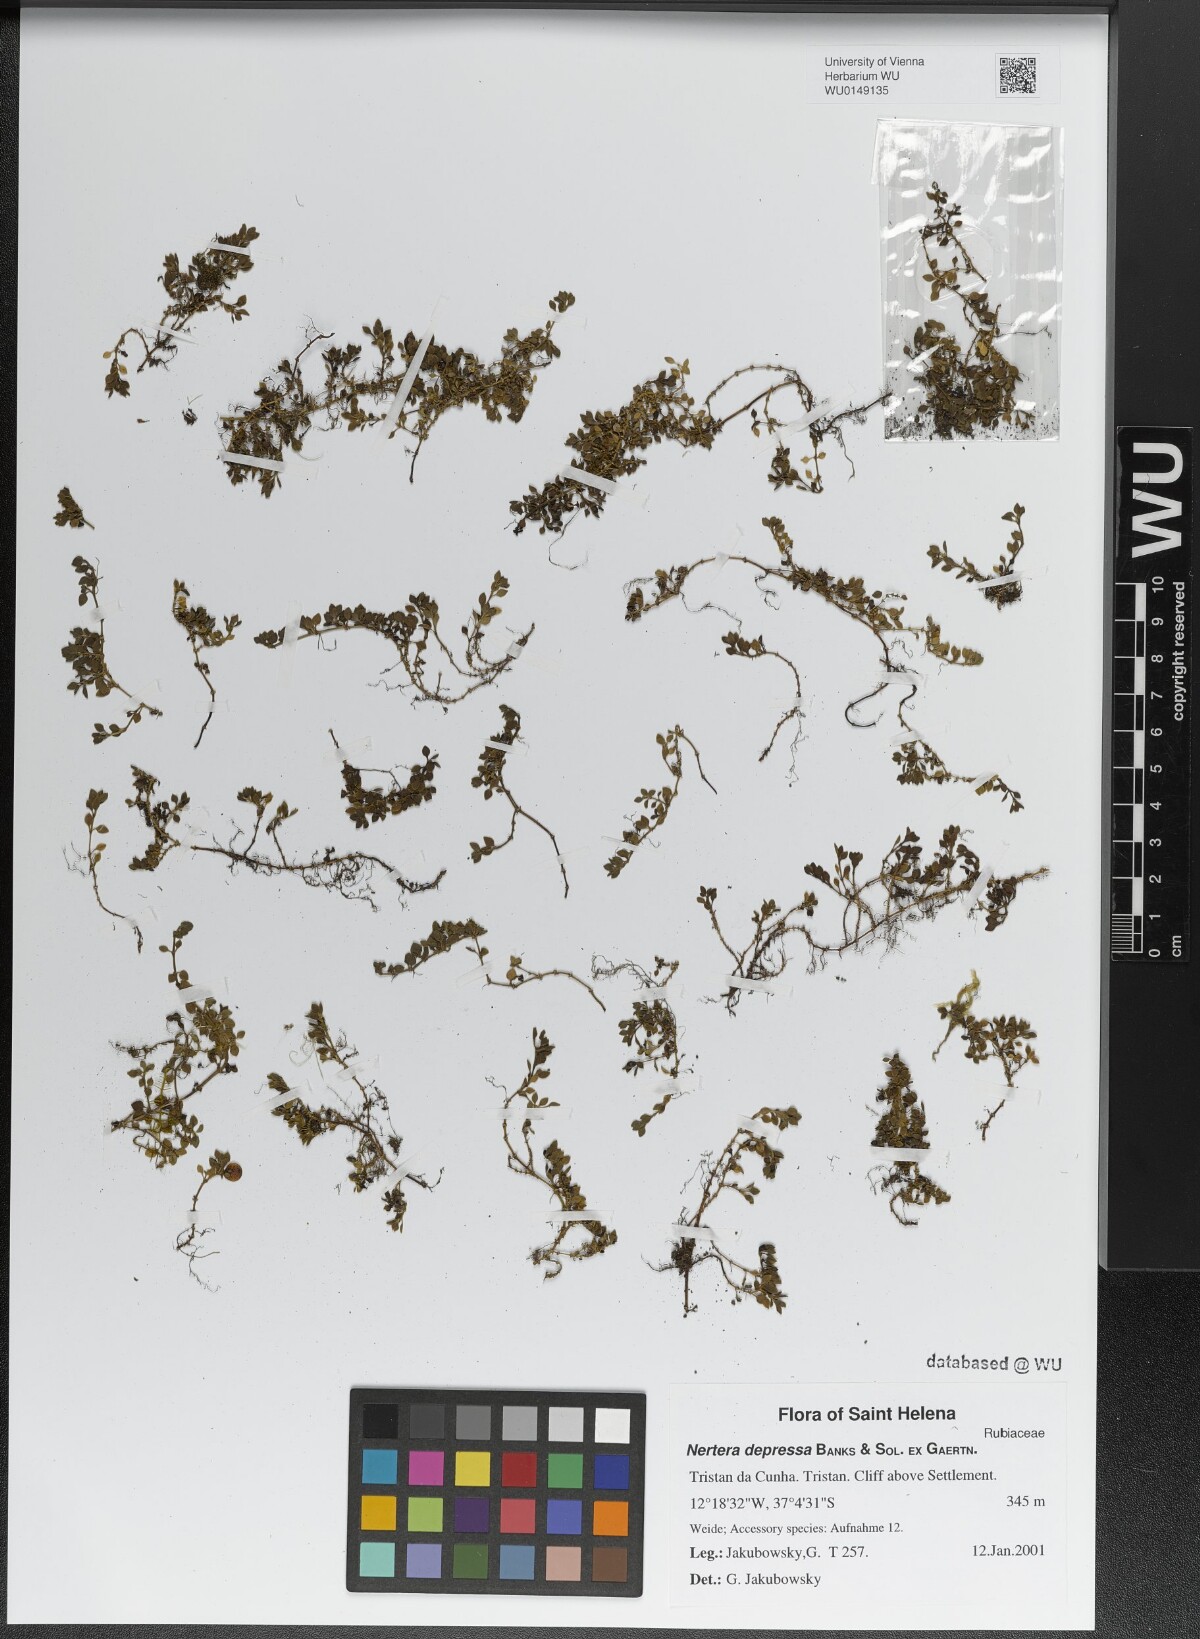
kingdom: Plantae
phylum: Tracheophyta
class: Magnoliopsida
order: Gentianales
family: Rubiaceae
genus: Nertera
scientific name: Nertera granadensis
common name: Beadplant
